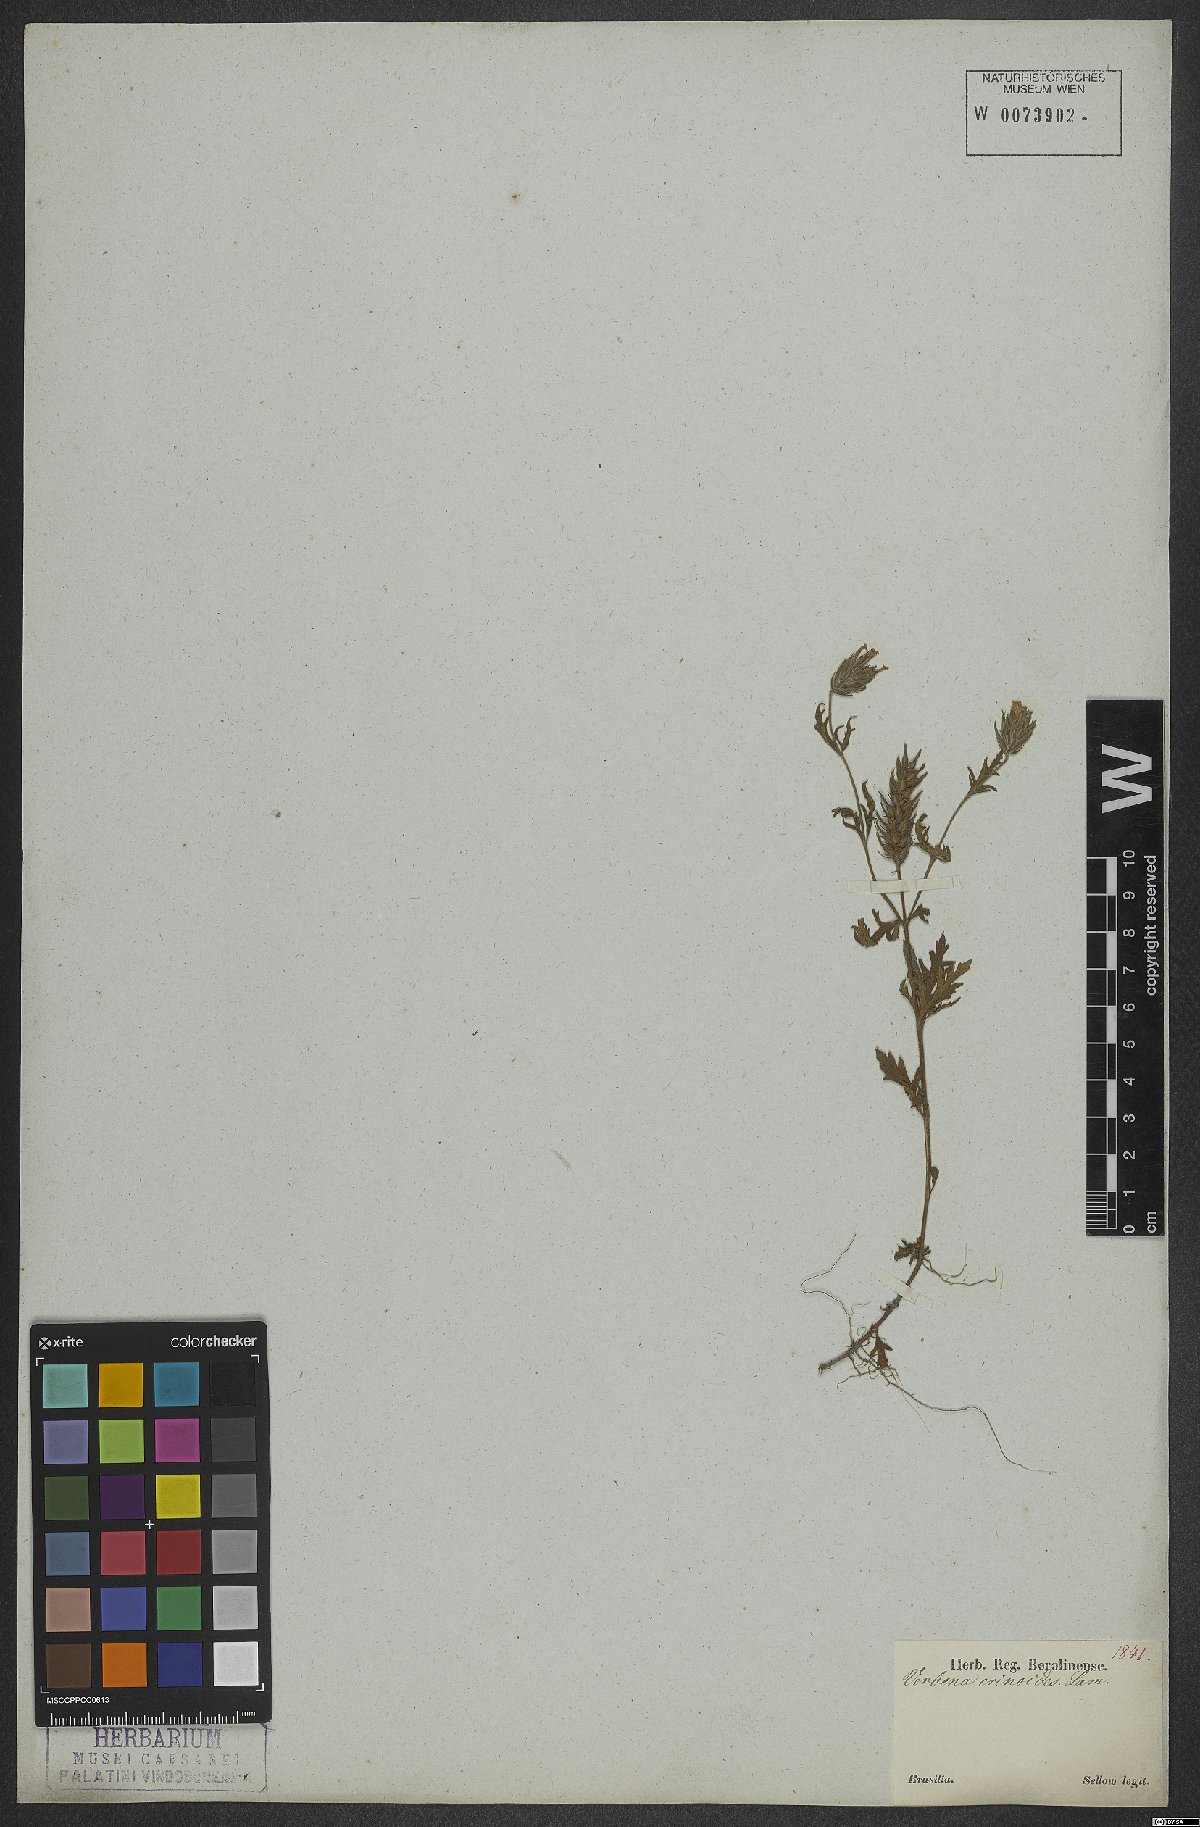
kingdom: Plantae
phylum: Tracheophyta
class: Magnoliopsida
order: Lamiales
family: Verbenaceae
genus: Verbena
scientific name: Verbena laciniata
